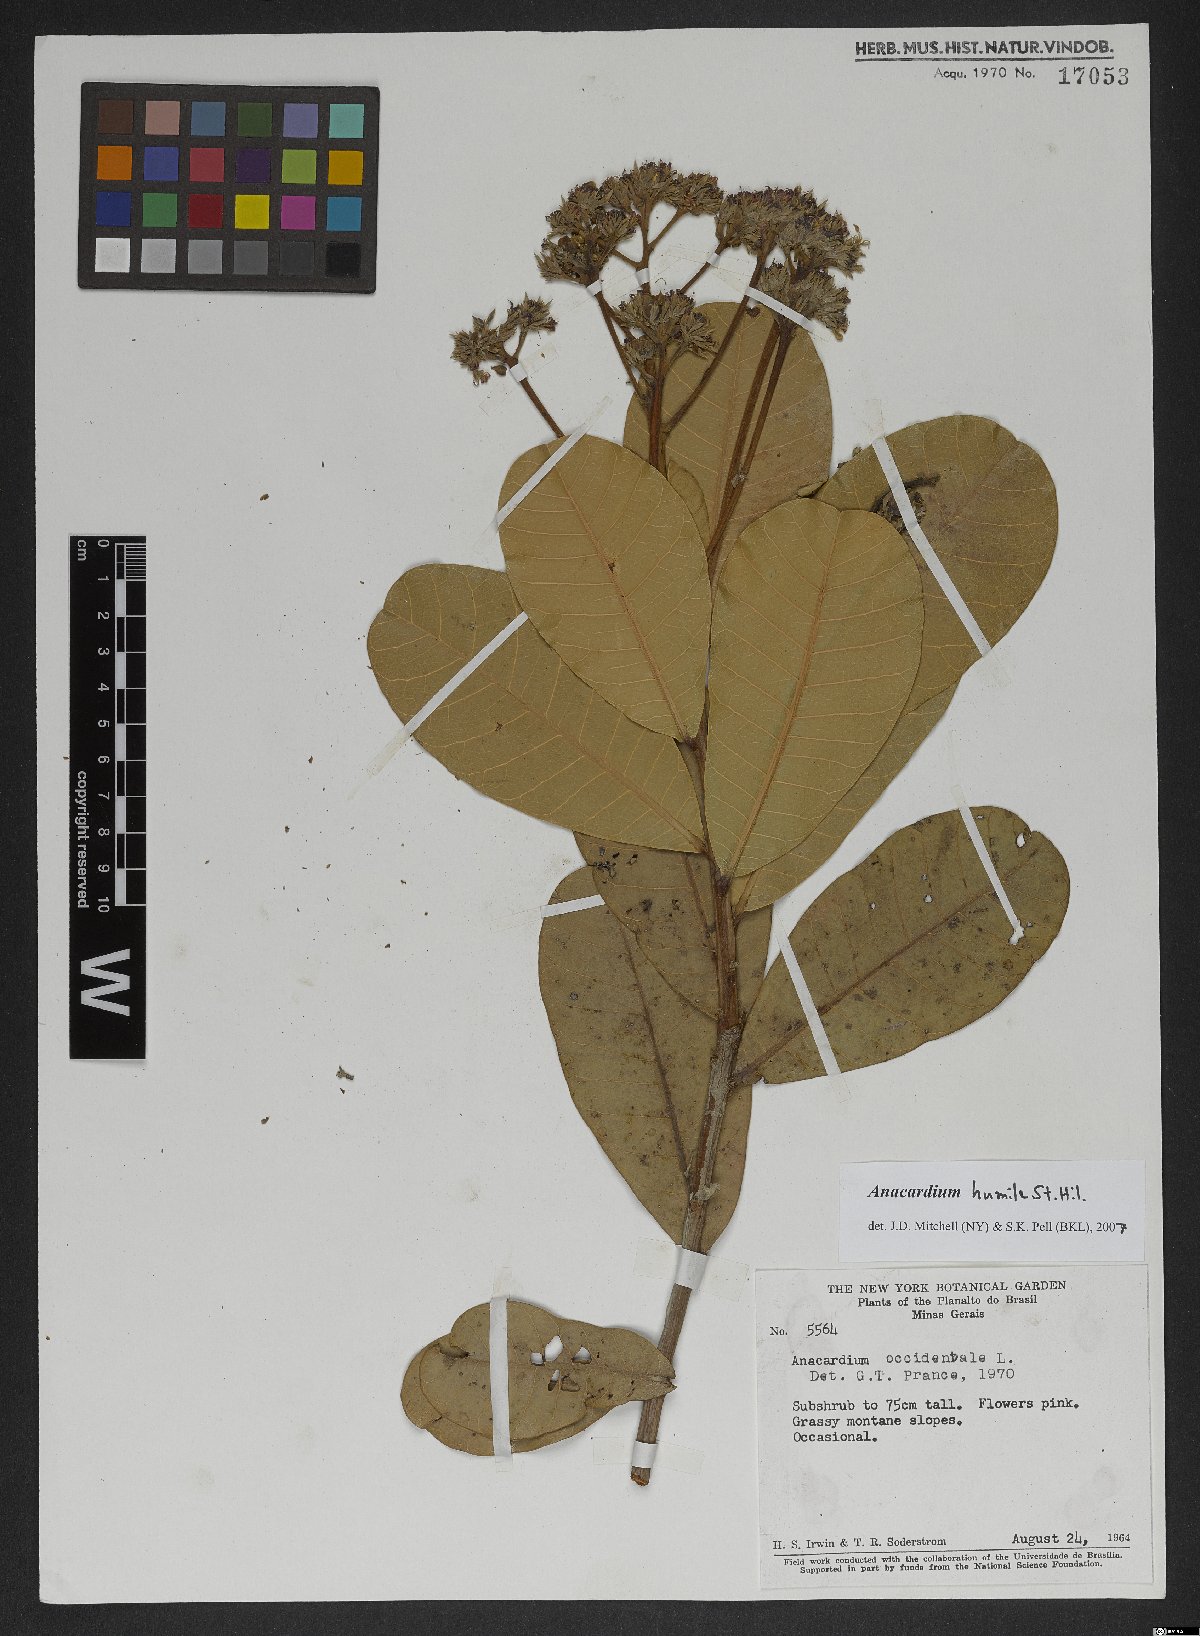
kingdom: Plantae
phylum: Tracheophyta
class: Magnoliopsida
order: Sapindales
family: Anacardiaceae
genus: Anacardium
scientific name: Anacardium humile
